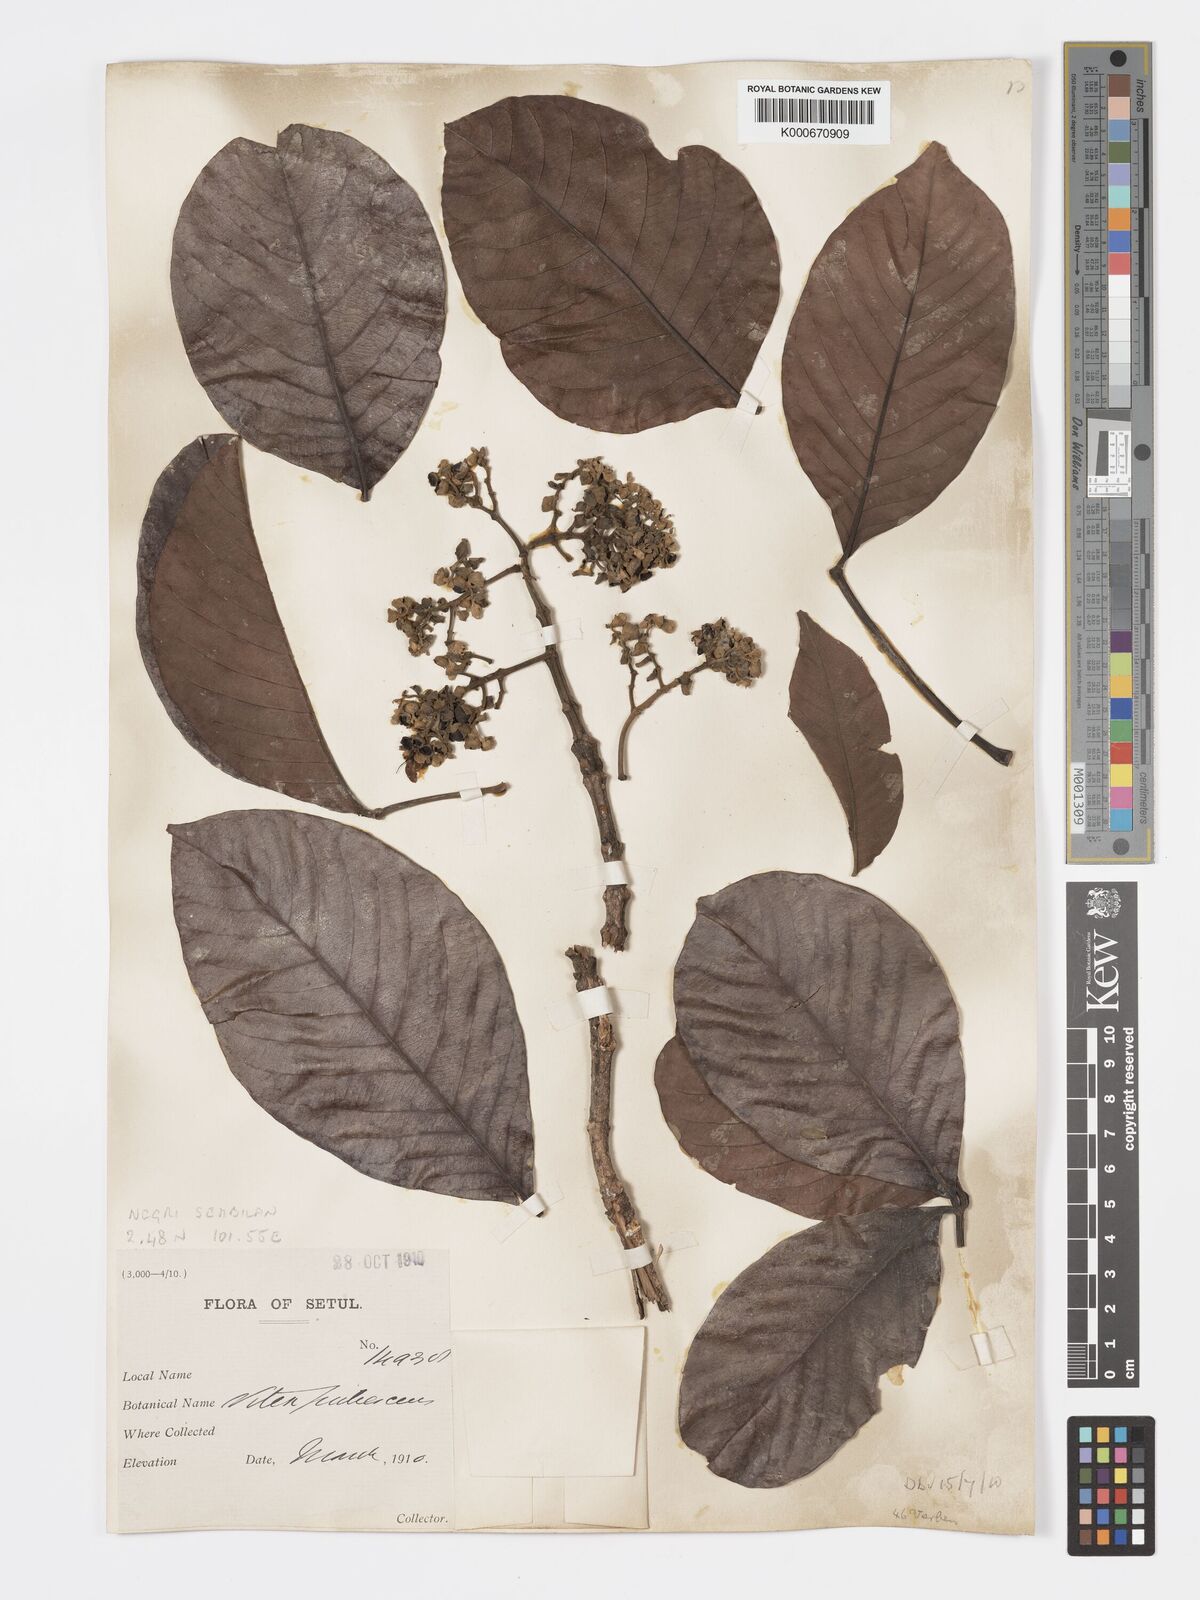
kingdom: Plantae
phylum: Tracheophyta
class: Magnoliopsida
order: Lamiales
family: Lamiaceae
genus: Vitex
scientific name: Vitex pinnata
